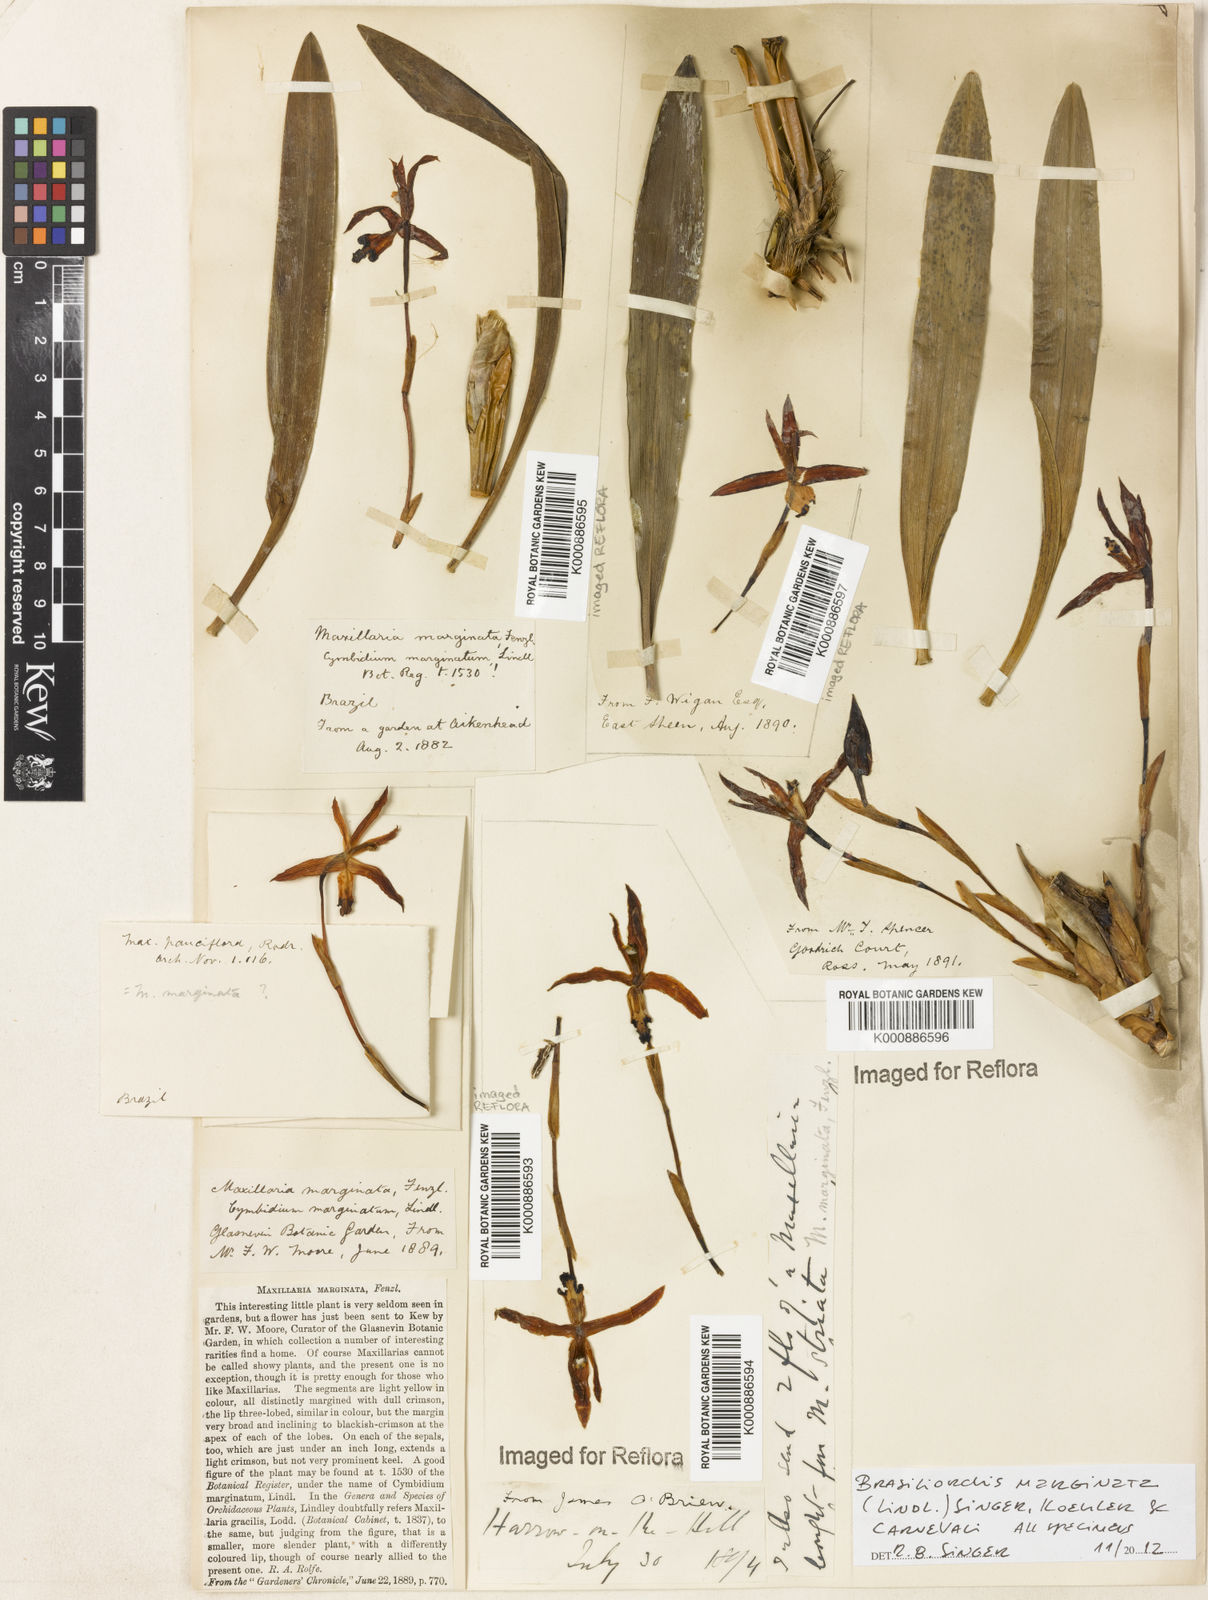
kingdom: Plantae
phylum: Tracheophyta
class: Liliopsida
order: Asparagales
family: Orchidaceae
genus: Maxillaria
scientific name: Maxillaria marginata
